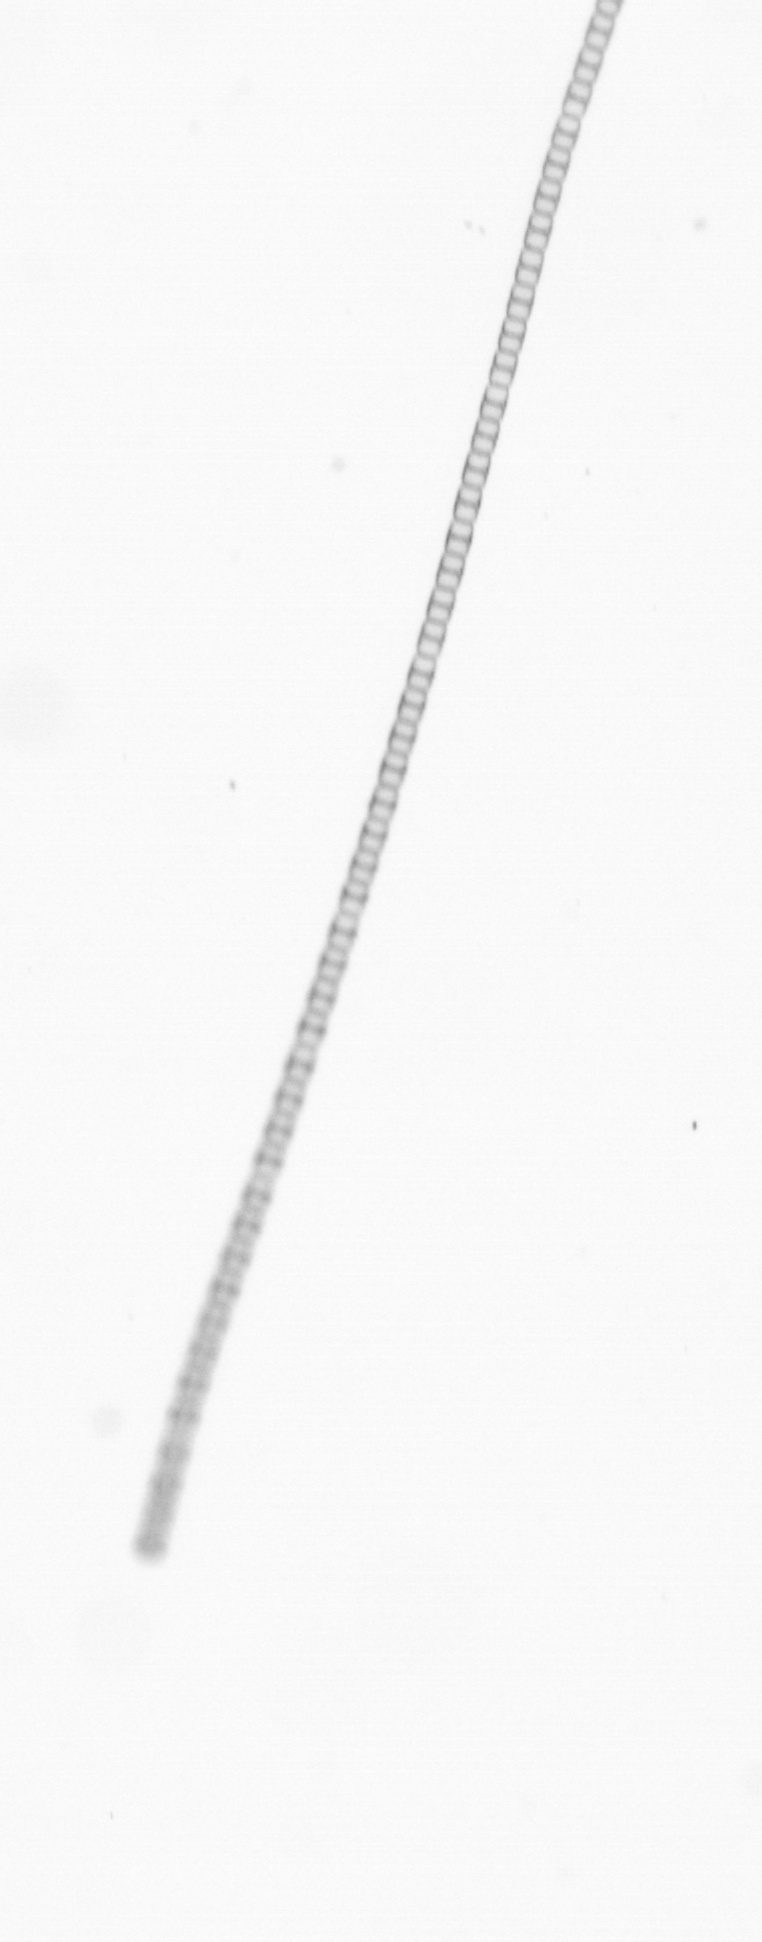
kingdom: Chromista
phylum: Ochrophyta
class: Bacillariophyceae
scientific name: Bacillariophyceae
